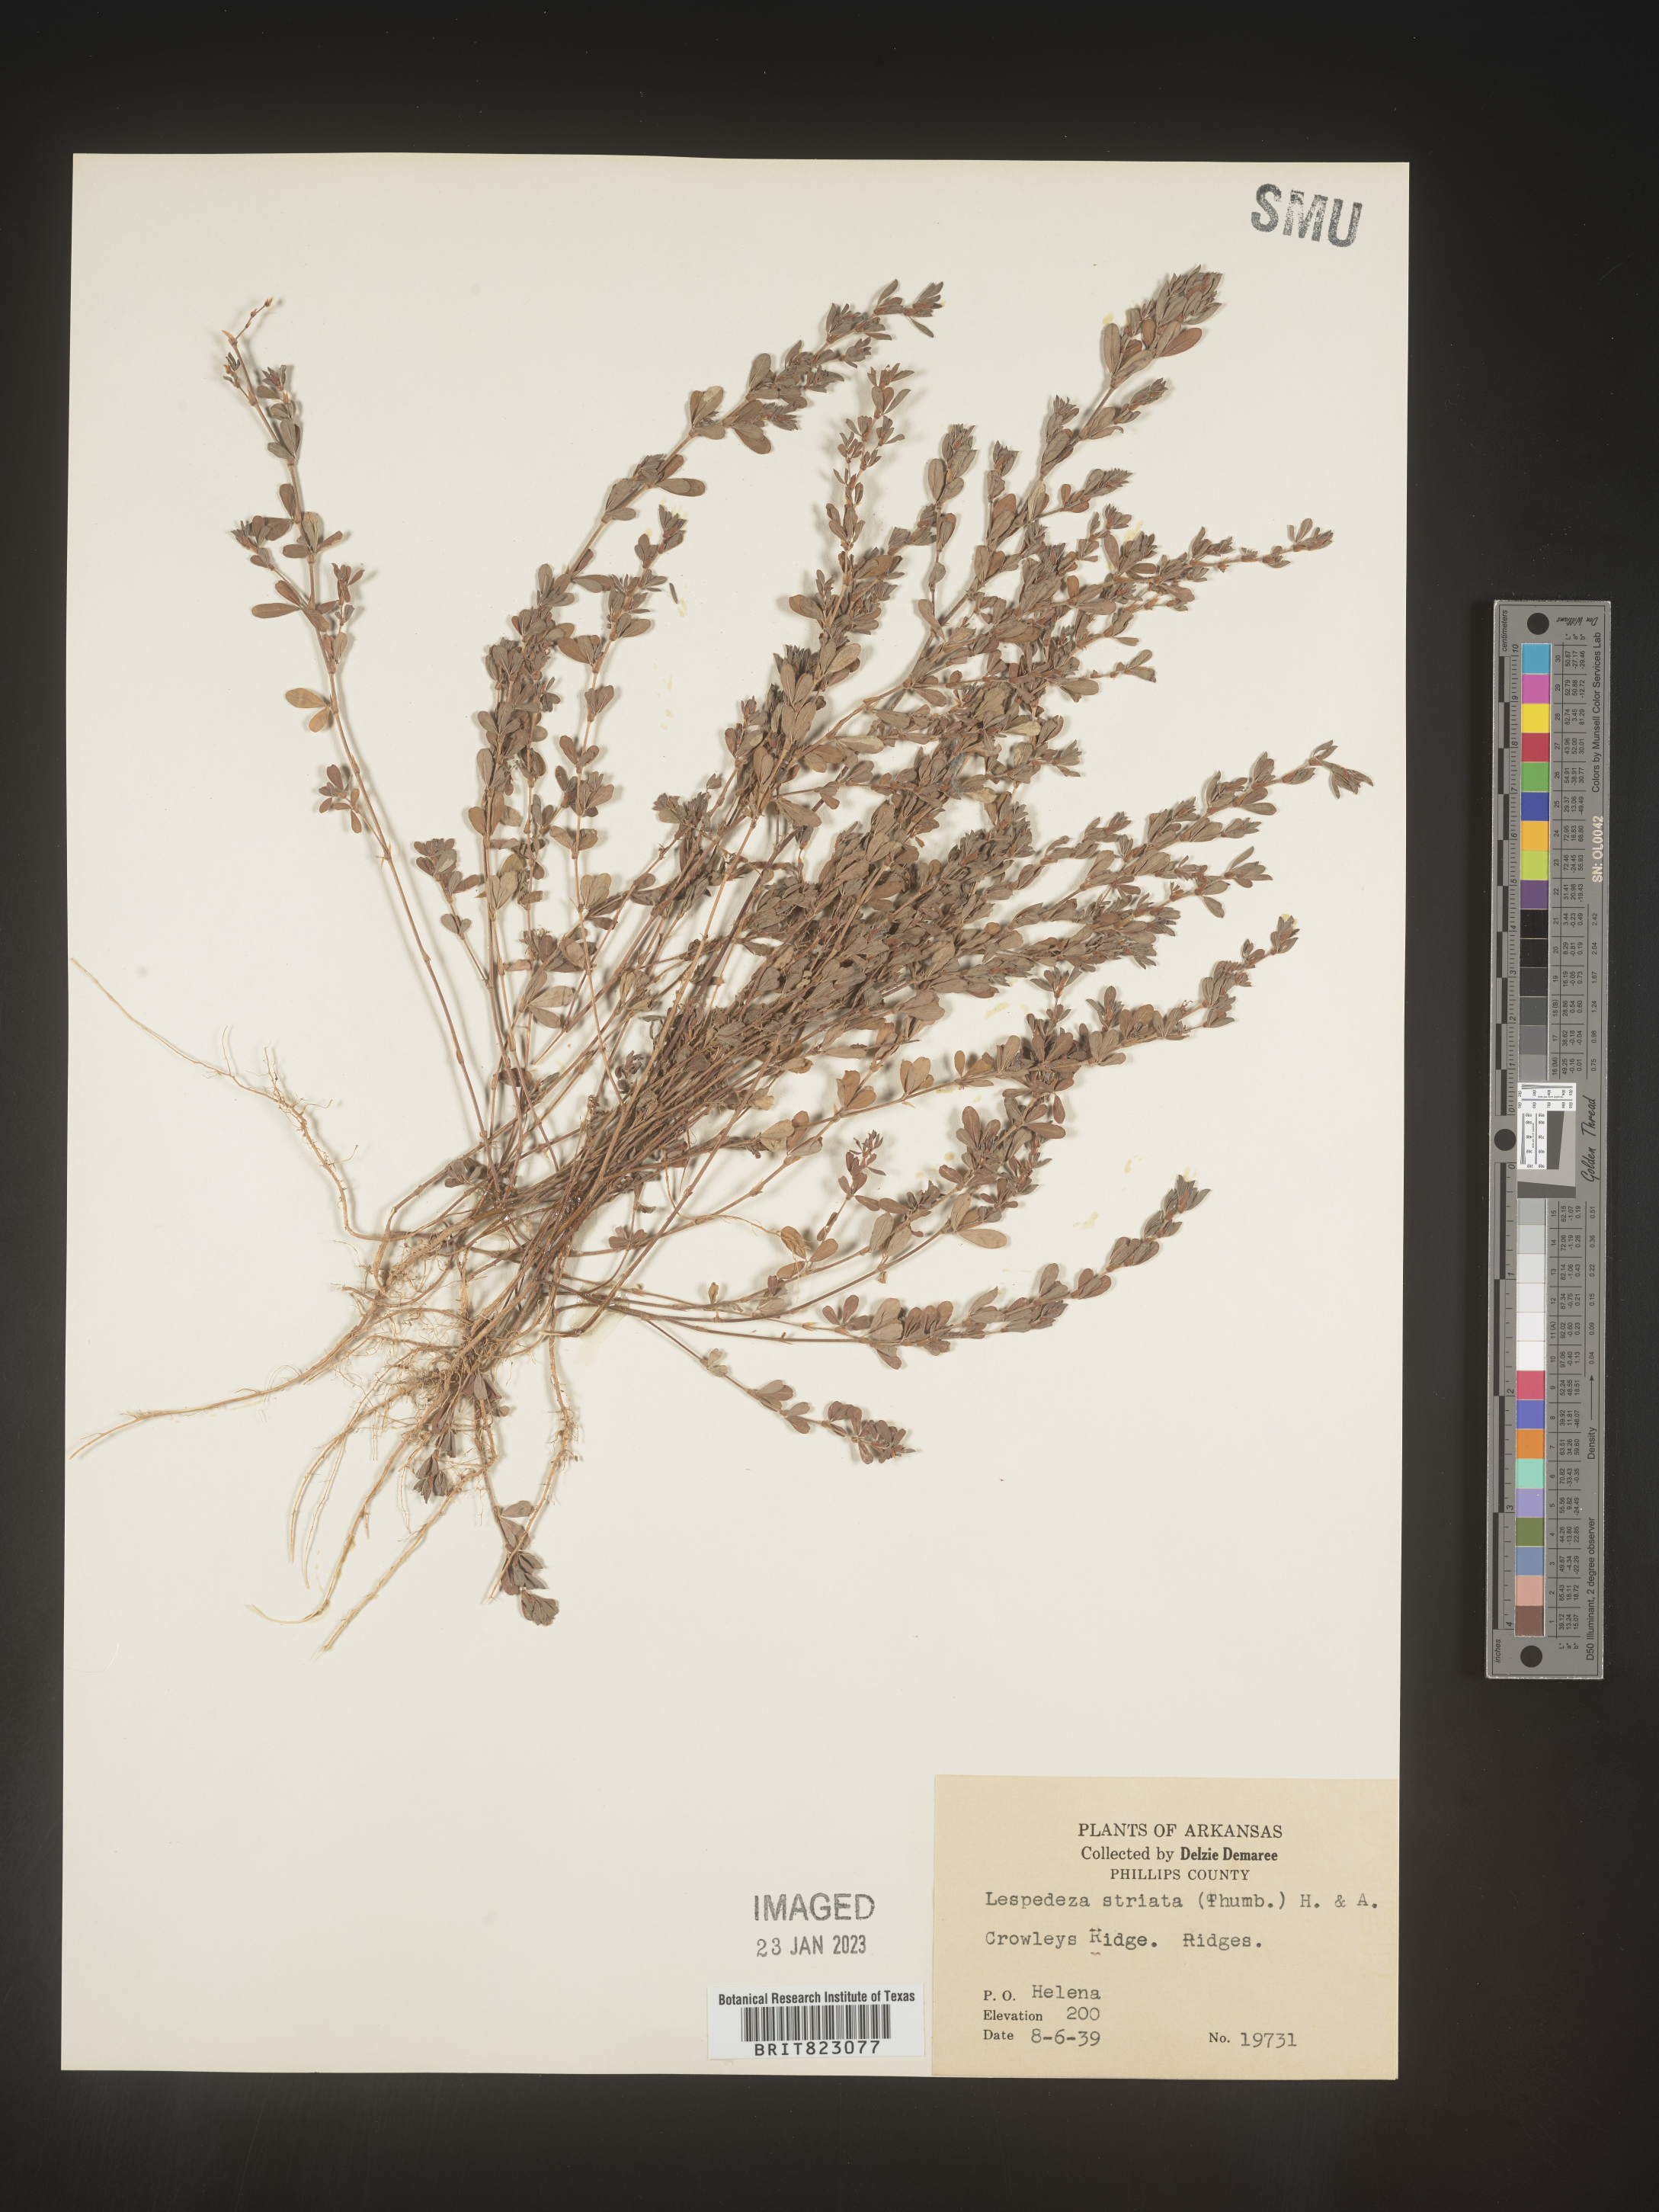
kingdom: Plantae
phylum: Tracheophyta
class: Magnoliopsida
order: Fabales
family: Fabaceae
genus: Kummerowia
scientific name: Kummerowia striata
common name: Japanese clover
